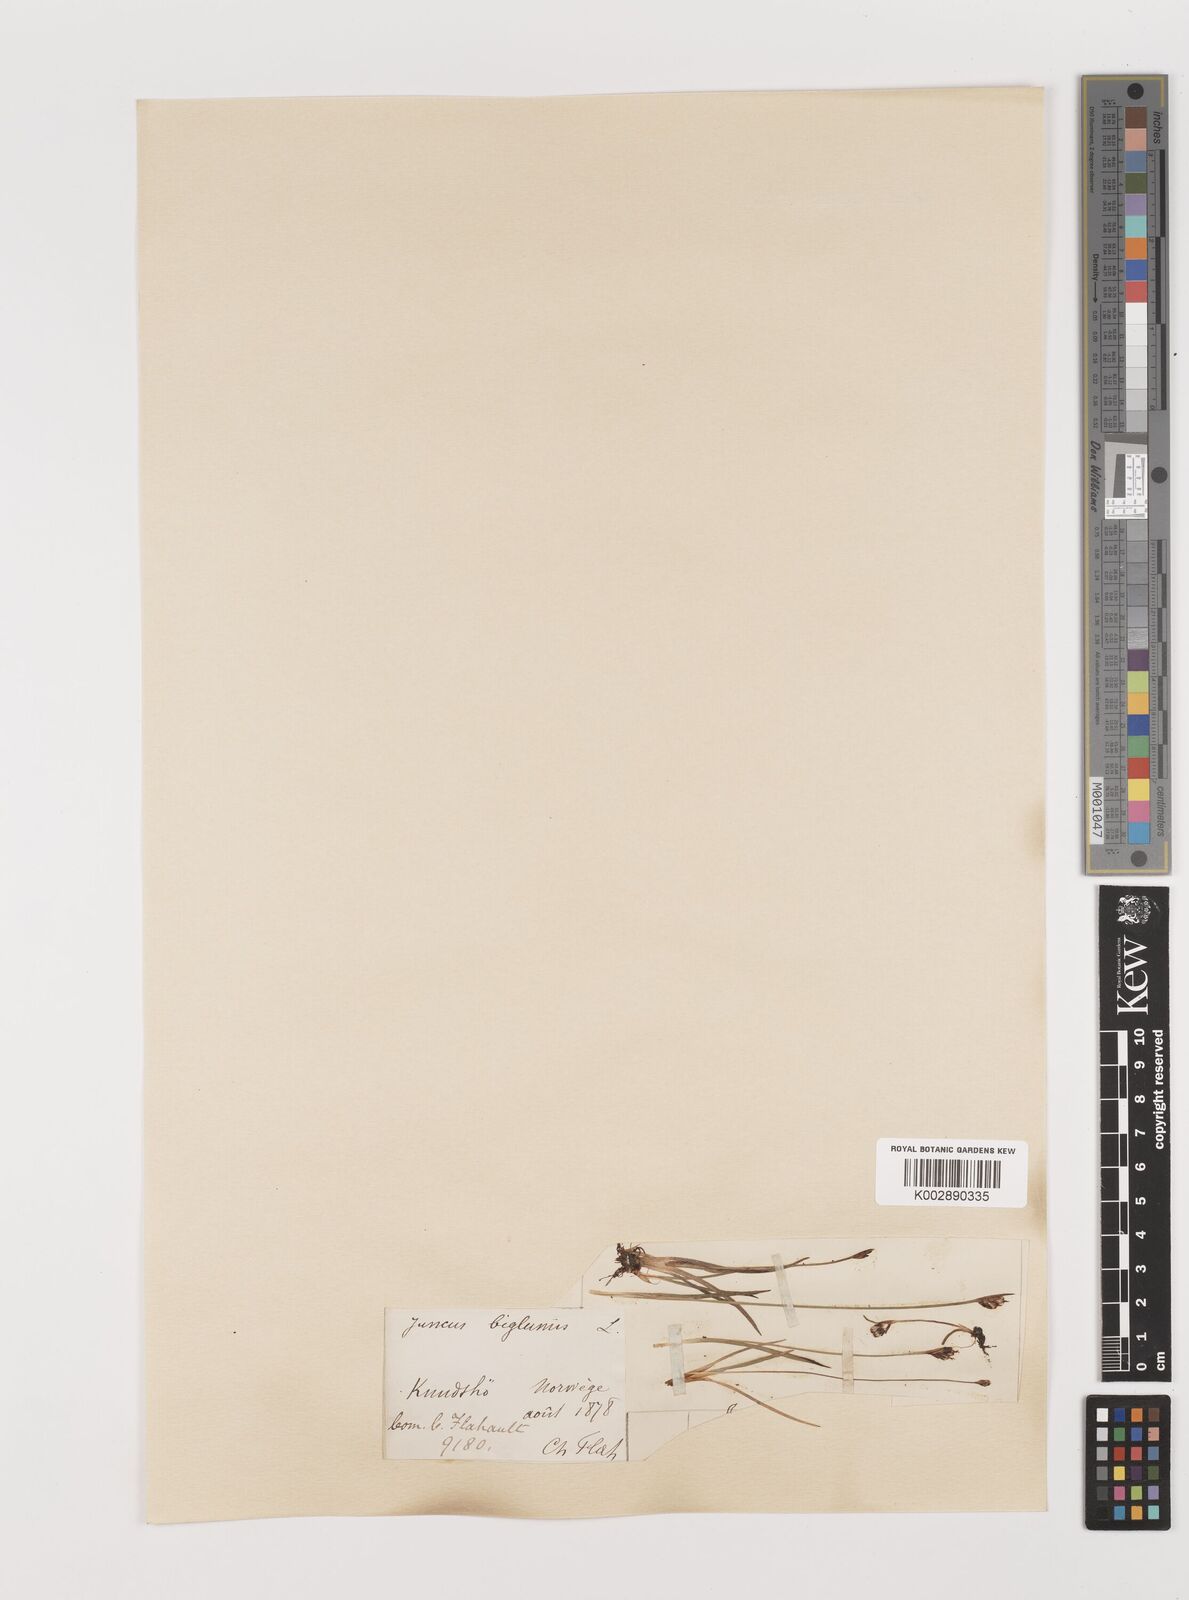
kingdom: Plantae
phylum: Tracheophyta
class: Liliopsida
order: Poales
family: Juncaceae
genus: Juncus
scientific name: Juncus biglumis
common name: Two-flowered rush
